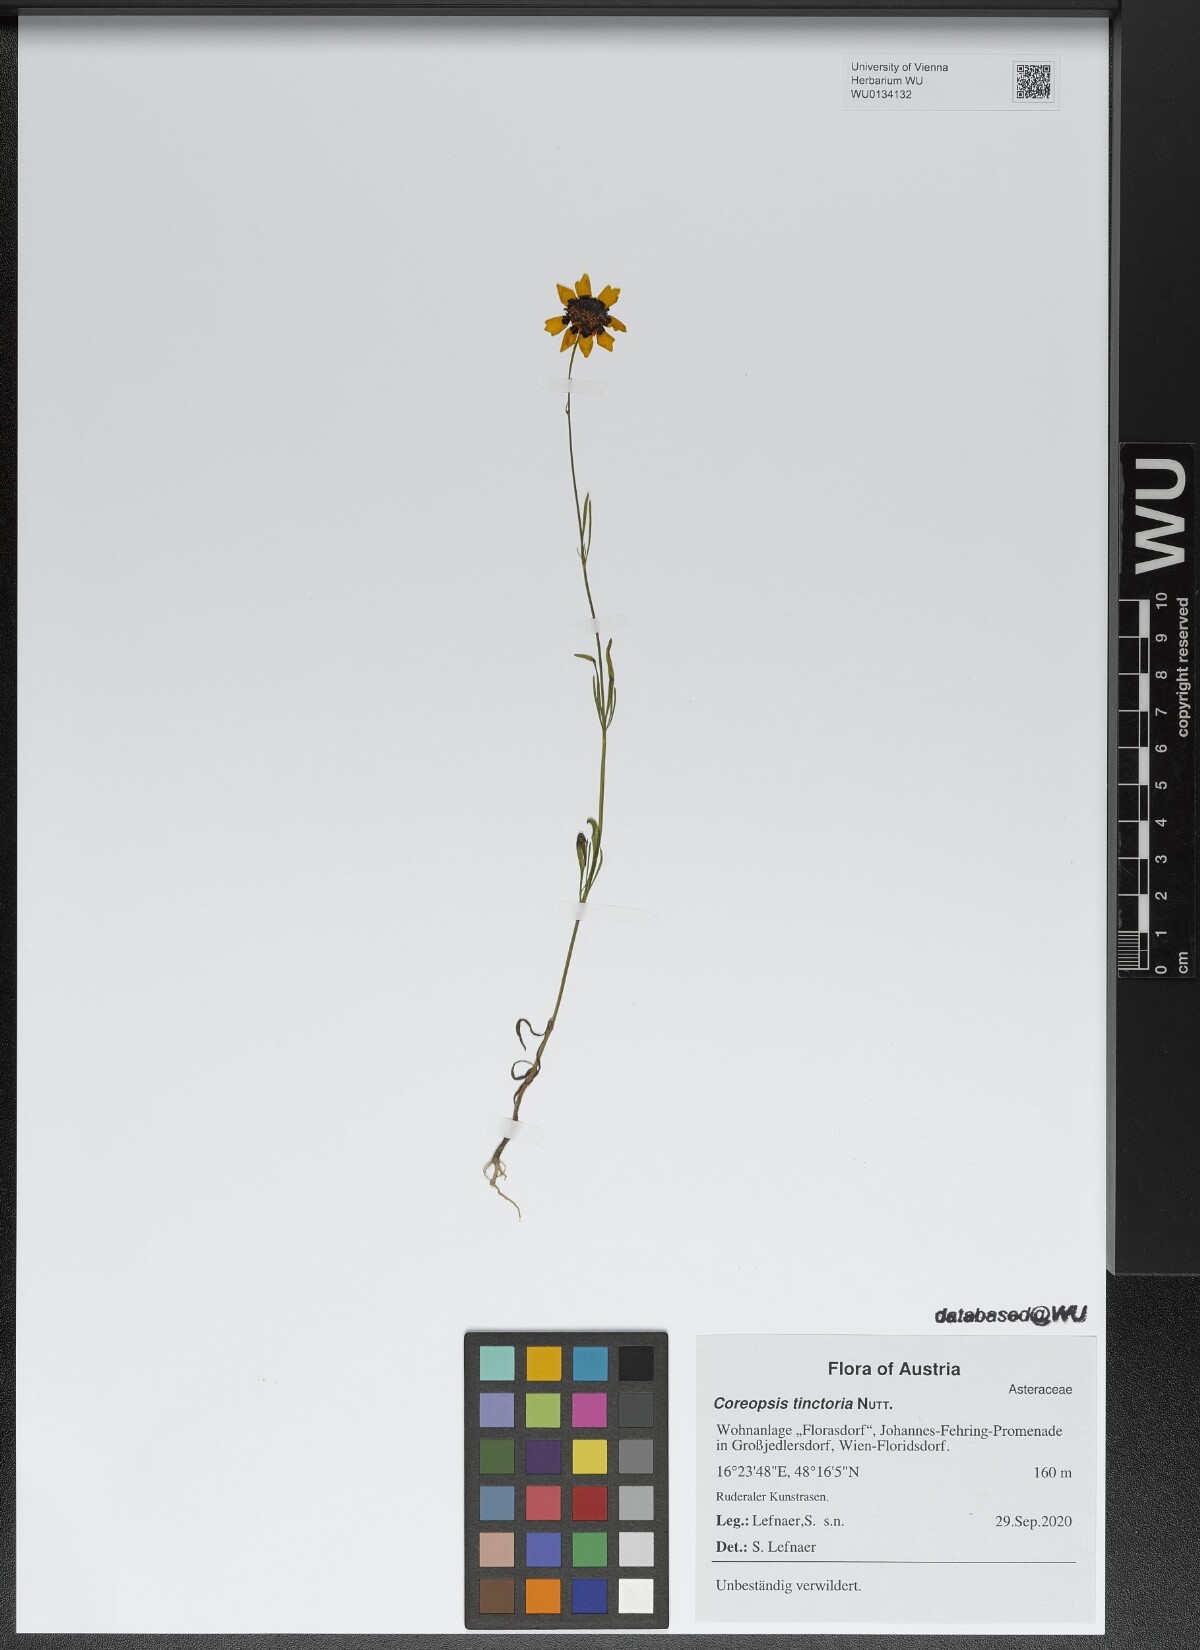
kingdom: Plantae
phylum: Tracheophyta
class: Magnoliopsida
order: Asterales
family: Asteraceae
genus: Coreopsis
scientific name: Coreopsis tinctoria
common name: Garden tickseed
